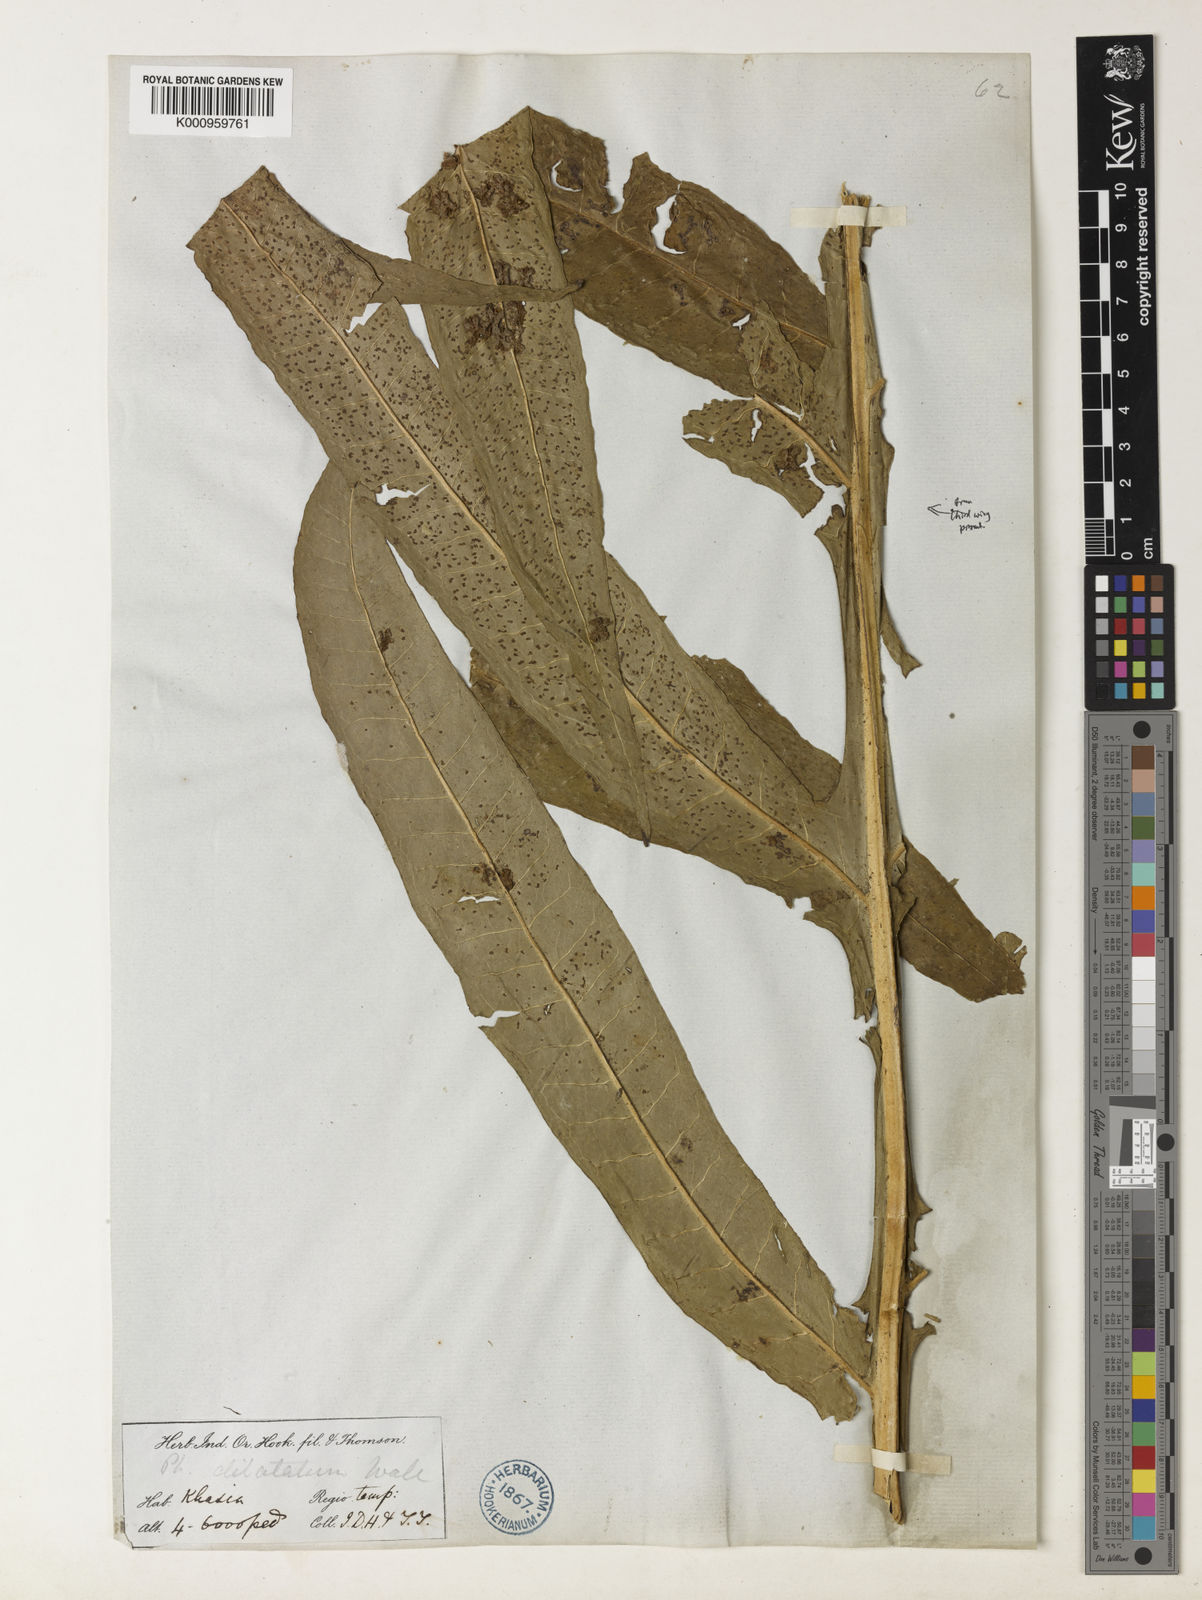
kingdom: Plantae
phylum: Tracheophyta
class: Polypodiopsida
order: Polypodiales
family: Polypodiaceae
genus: Leptochilus
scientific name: Leptochilus insignis
